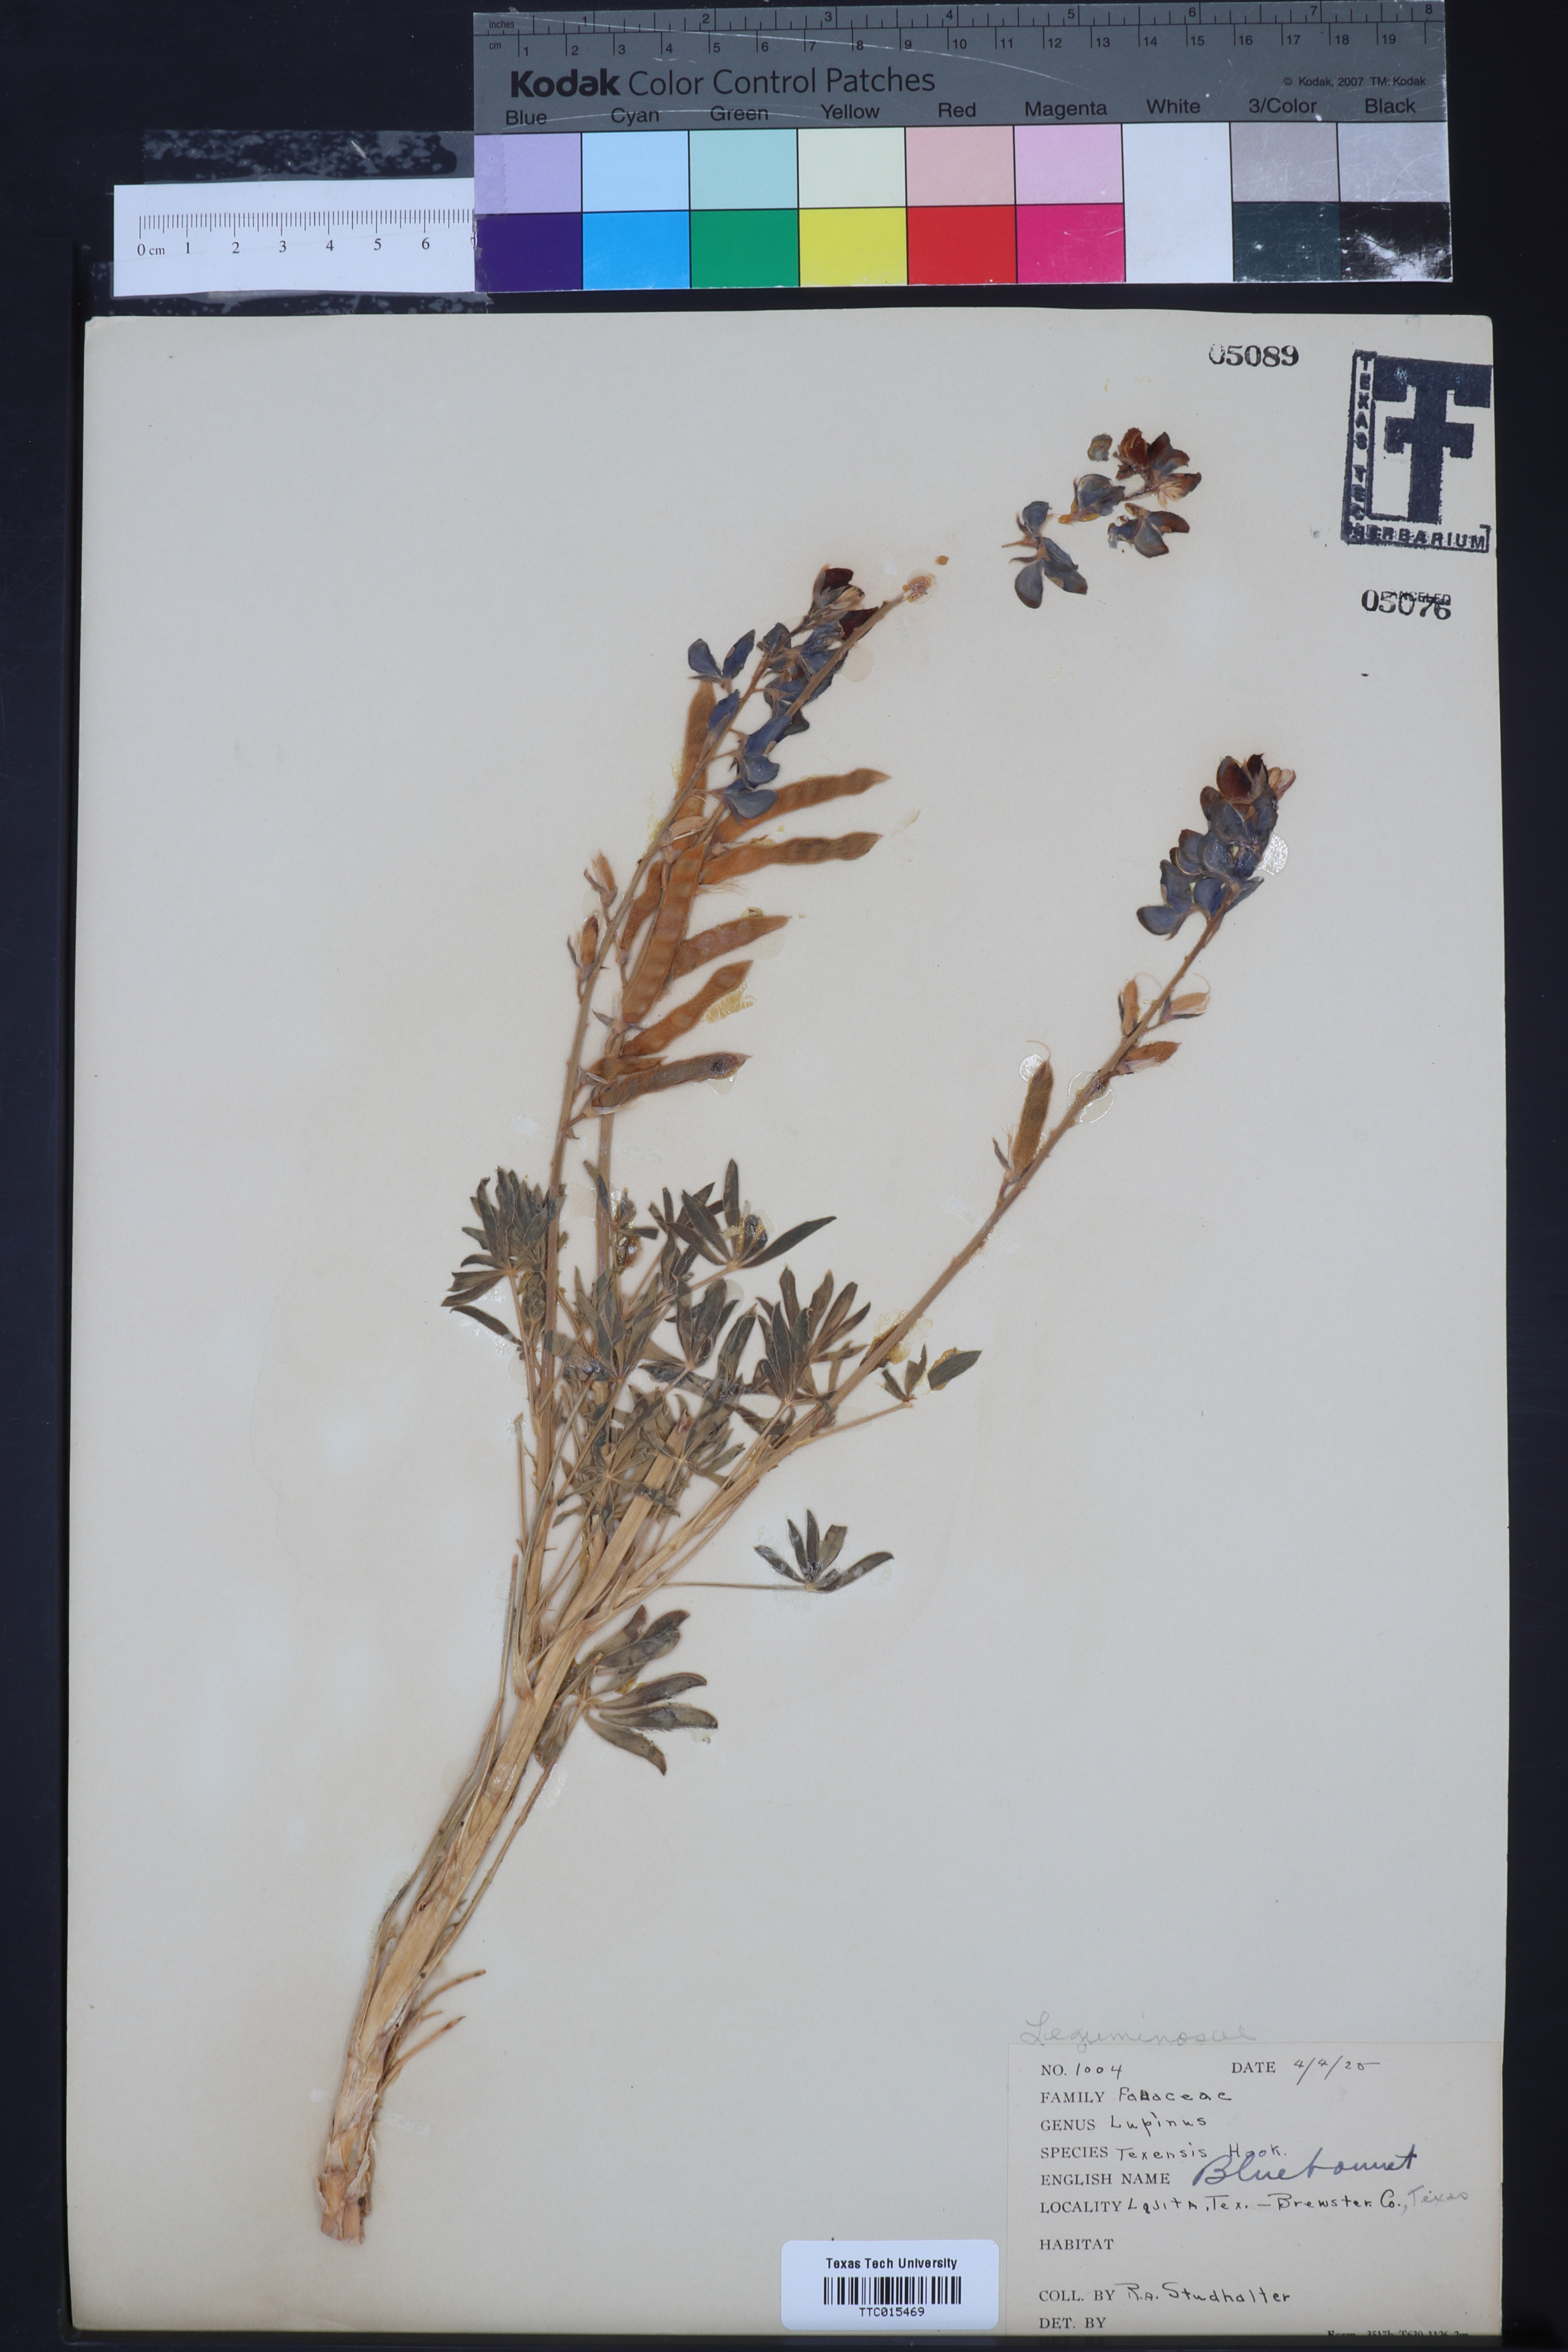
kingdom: Plantae
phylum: Tracheophyta
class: Magnoliopsida
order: Fabales
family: Fabaceae
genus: Lupinus
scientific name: Lupinus texensis
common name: Texas bluebonnet
